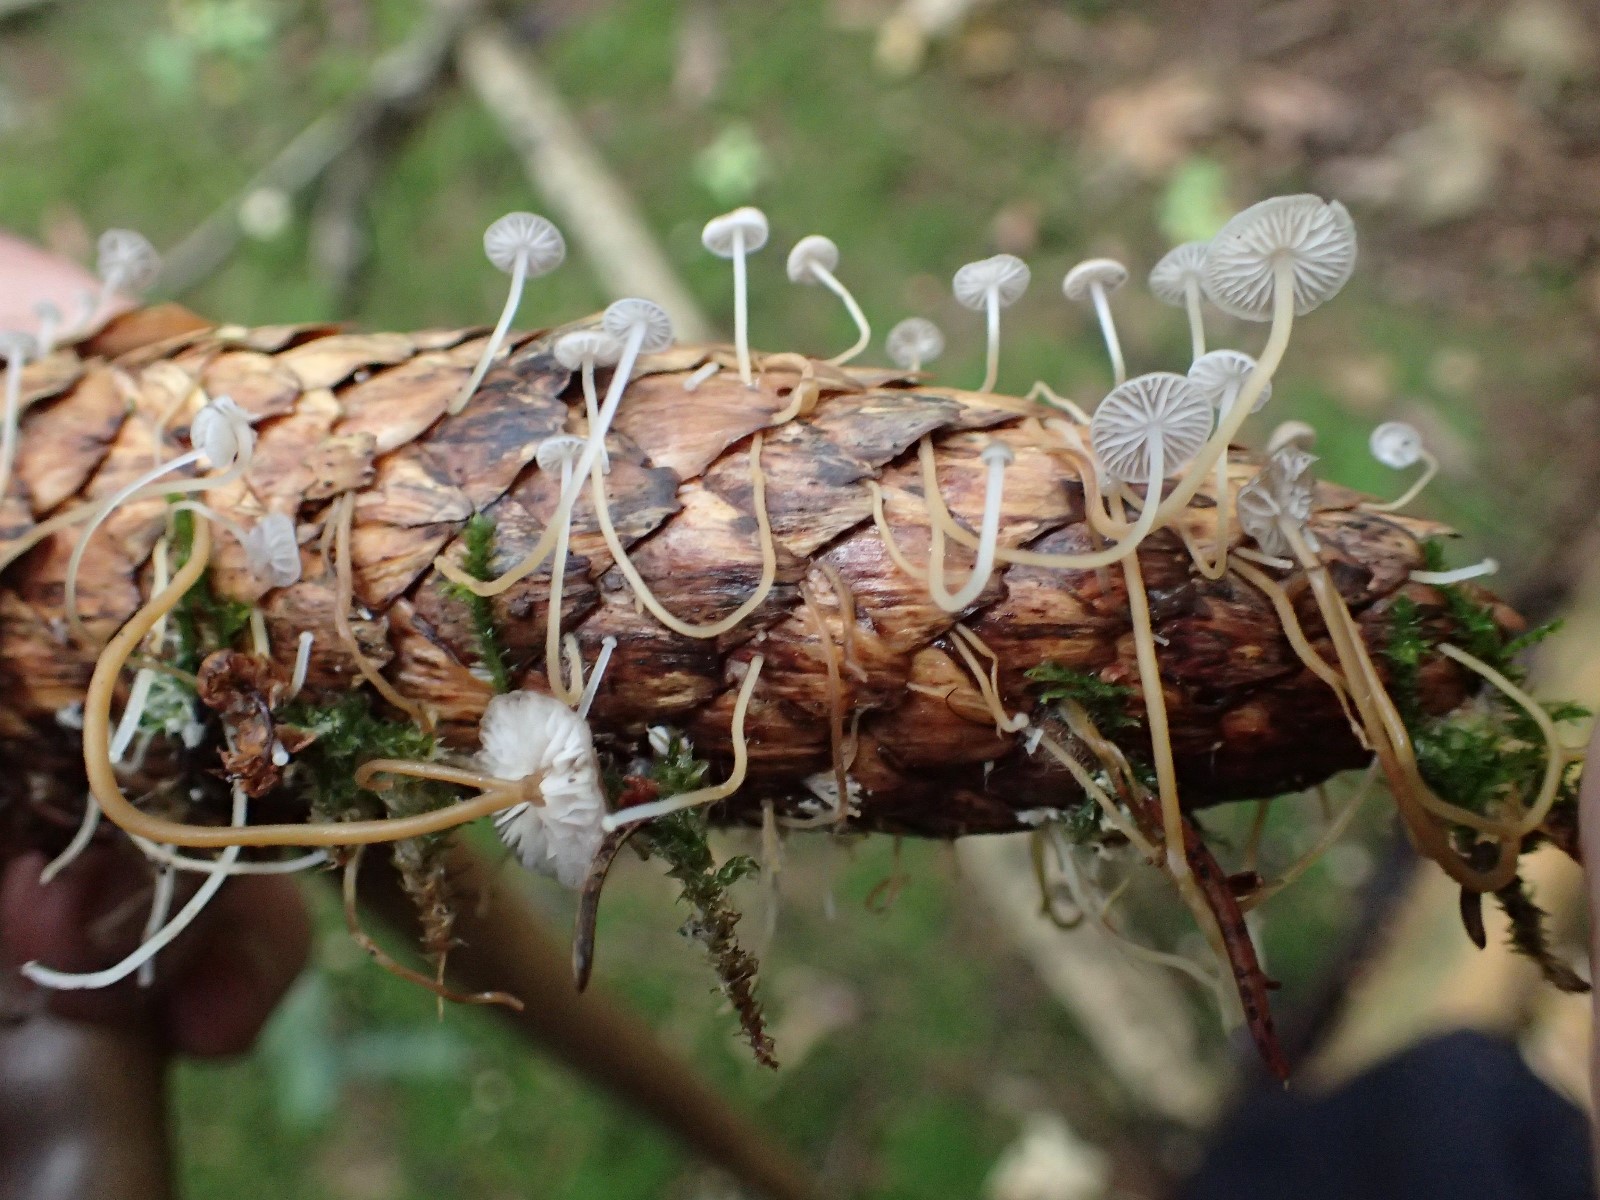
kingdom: Fungi
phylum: Basidiomycota
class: Agaricomycetes
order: Agaricales
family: Physalacriaceae
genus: Strobilurus
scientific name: Strobilurus esculentus
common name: gran-koglehat
